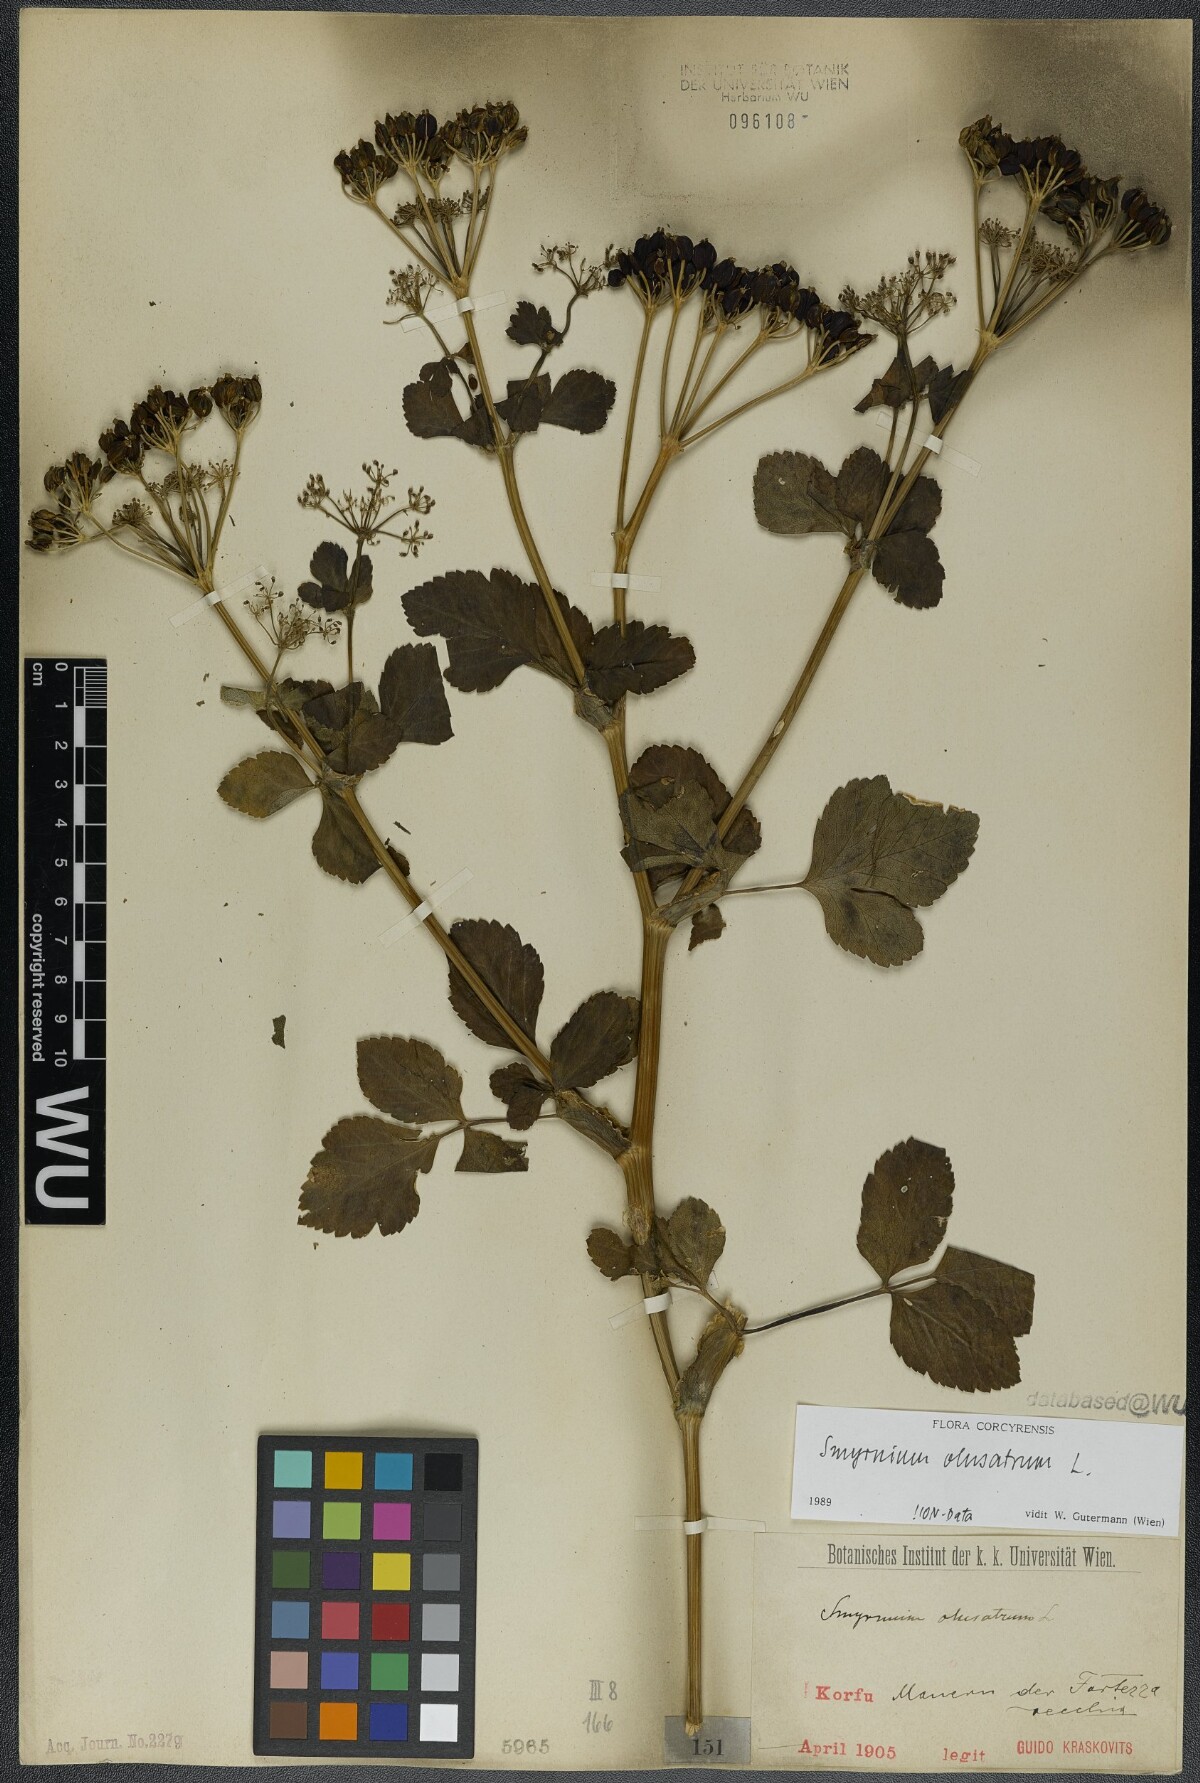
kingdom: Plantae
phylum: Tracheophyta
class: Magnoliopsida
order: Apiales
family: Apiaceae
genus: Smyrnium
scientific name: Smyrnium olusatrum
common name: Alexanders
